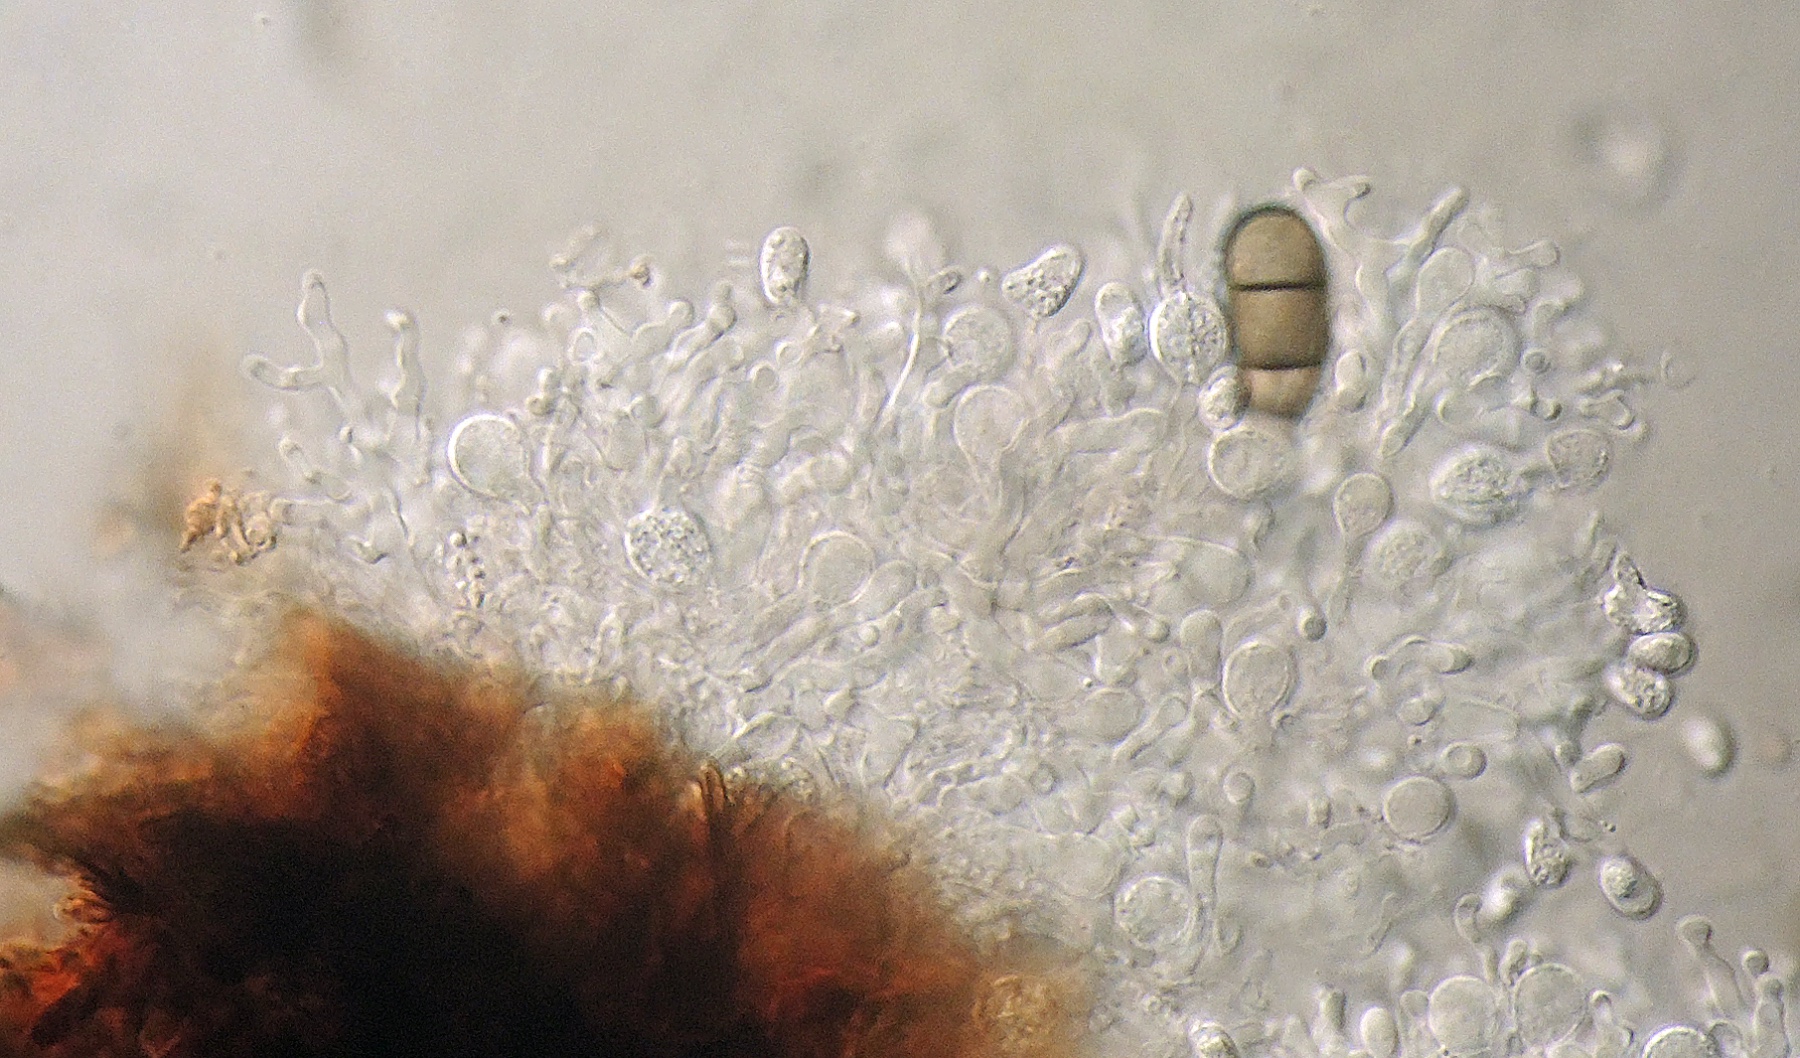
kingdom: Fungi
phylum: Basidiomycota
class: Agaricomycetes
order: Auriculariales
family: Hyaloriaceae
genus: Myxarium
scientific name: Myxarium minutissimum
